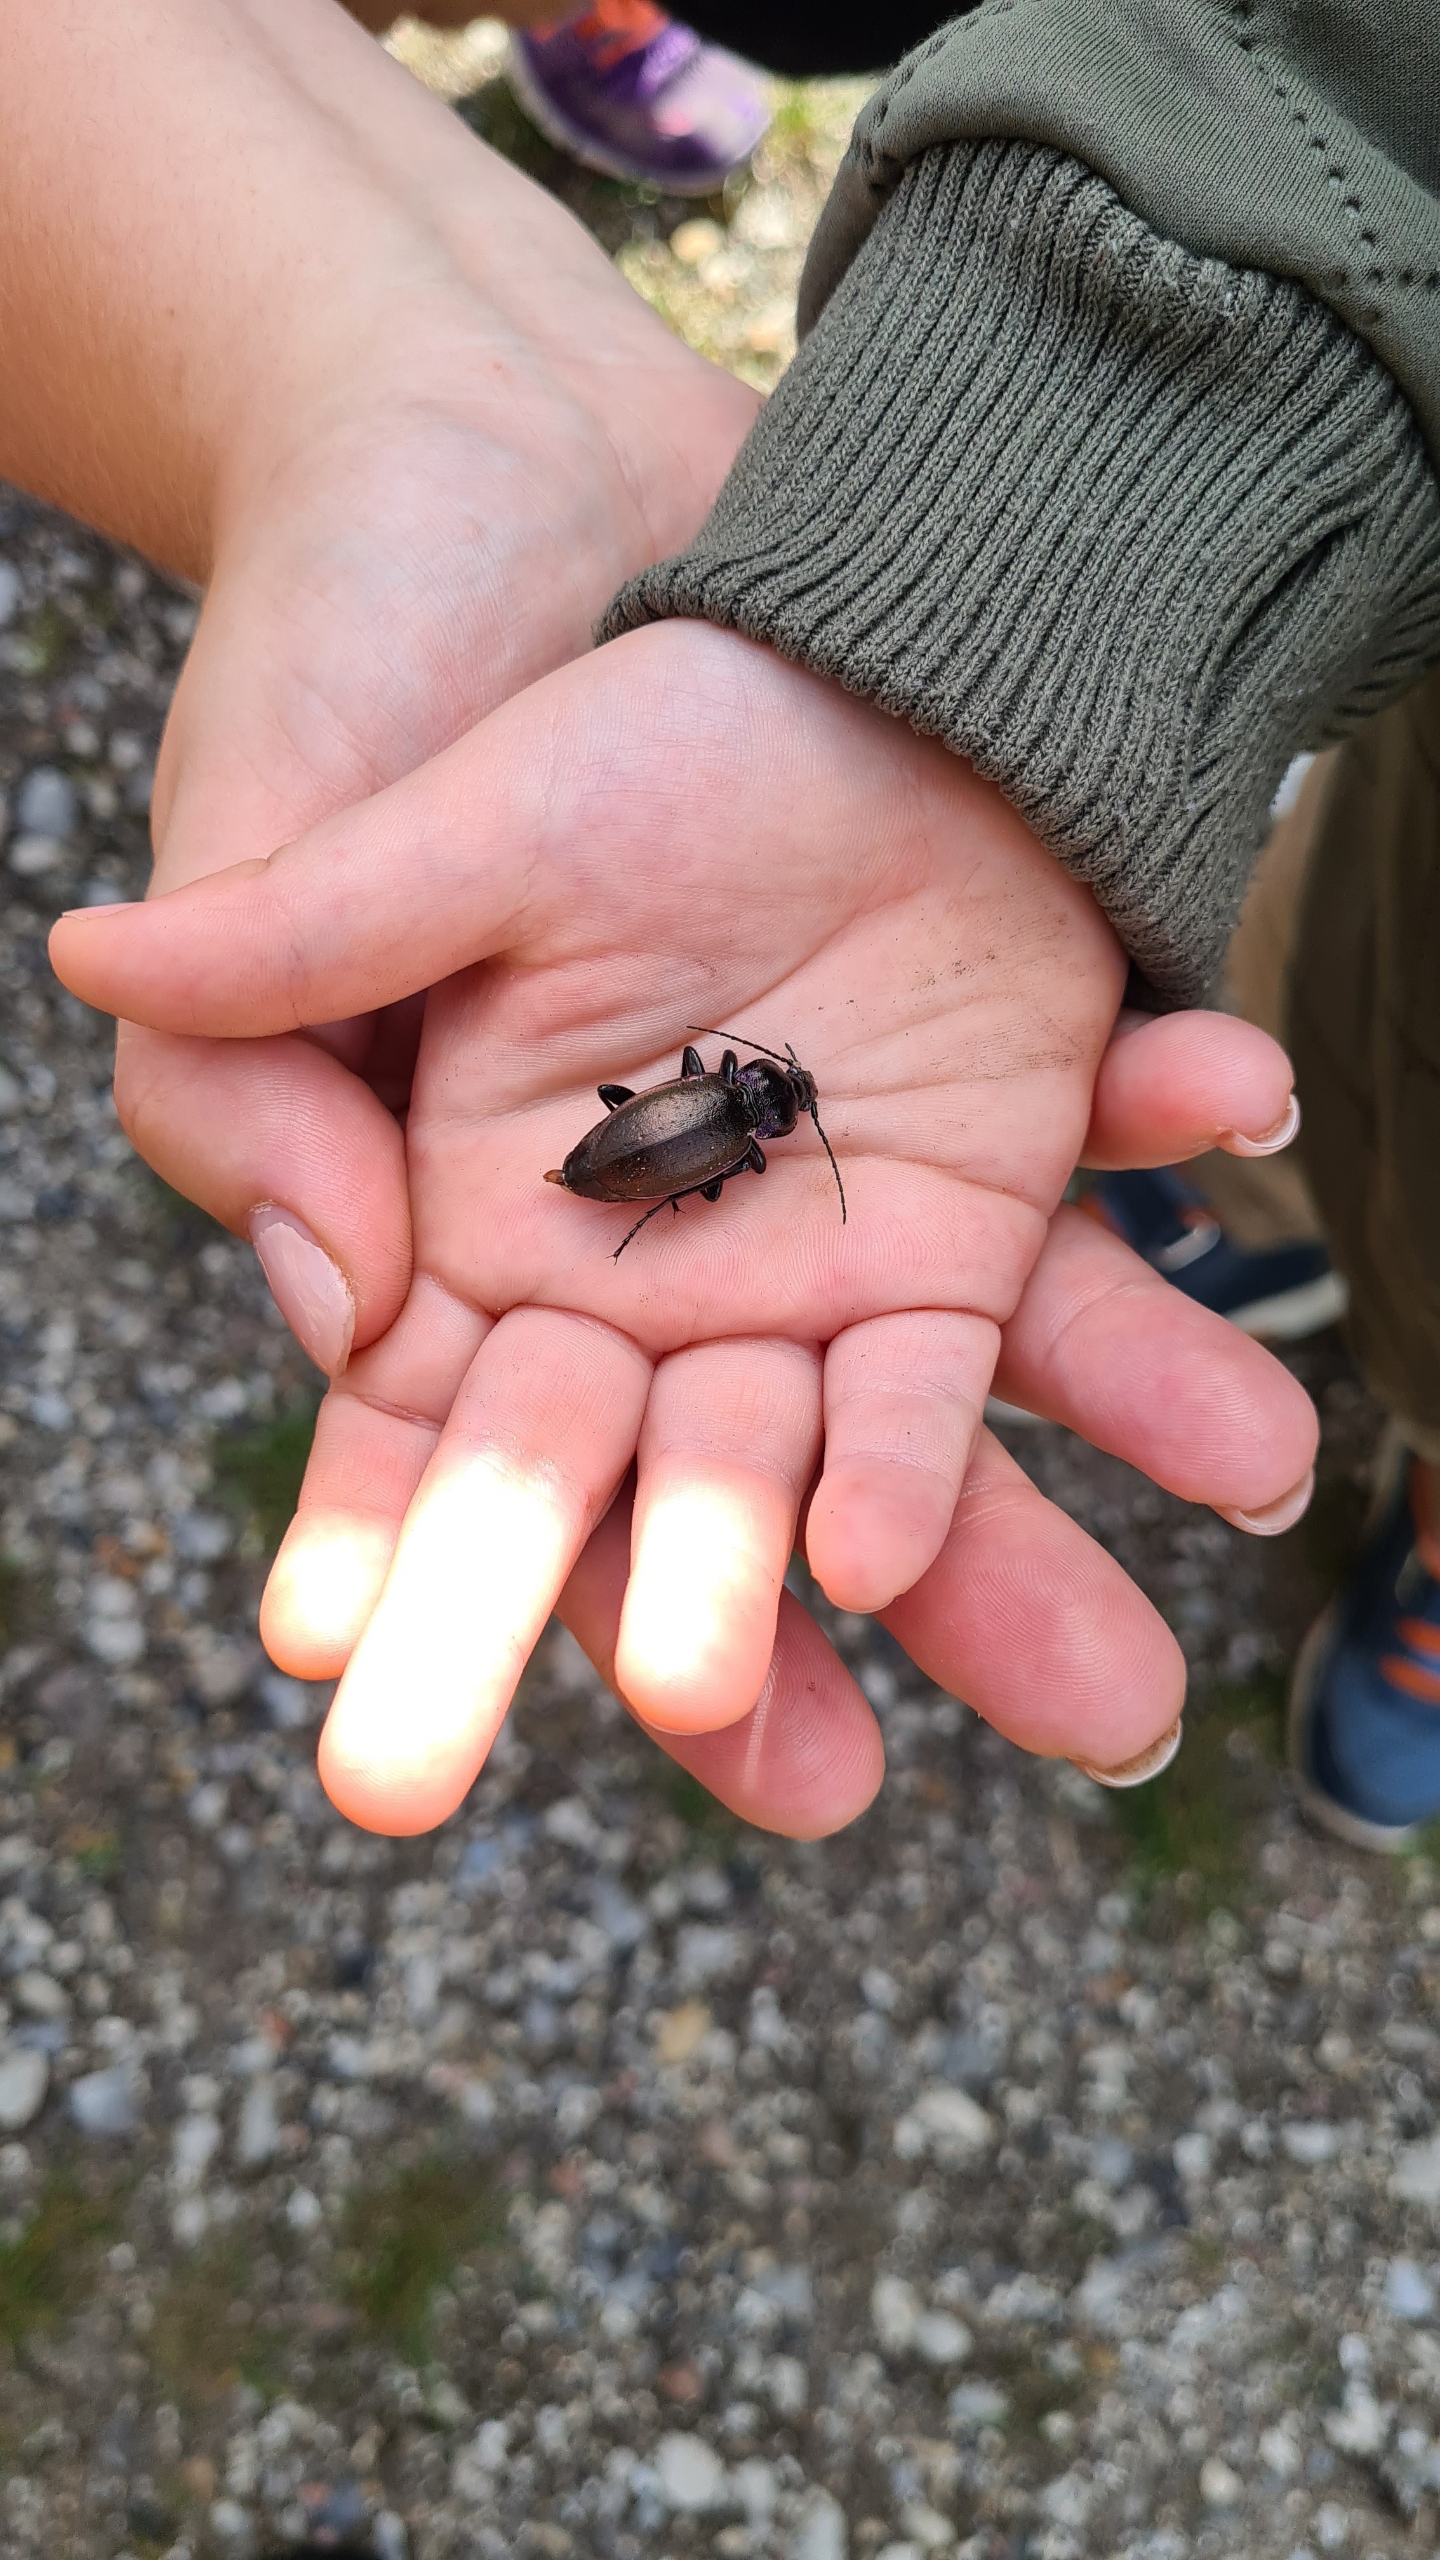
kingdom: Animalia
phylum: Arthropoda
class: Insecta
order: Coleoptera
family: Carabidae
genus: Carabus
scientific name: Carabus nemoralis
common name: Kratløber
